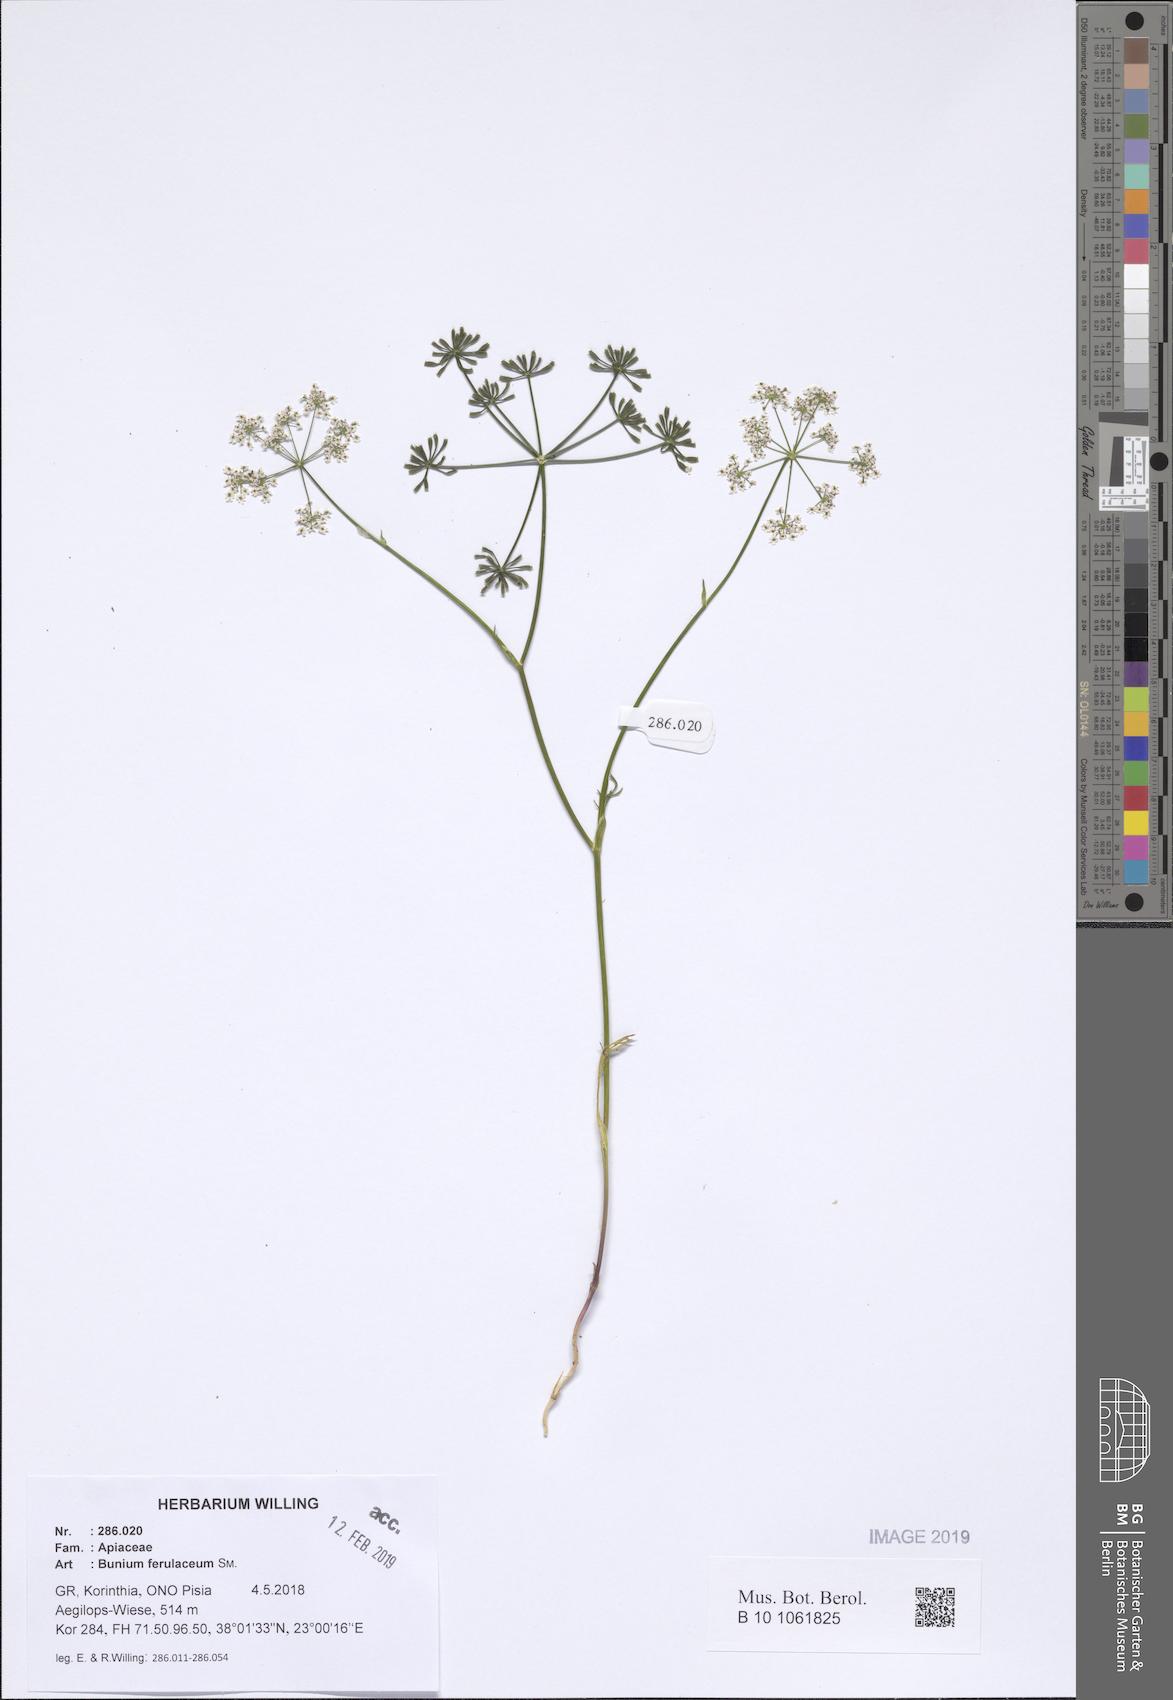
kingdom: Plantae
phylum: Tracheophyta
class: Magnoliopsida
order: Apiales
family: Apiaceae
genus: Bunium
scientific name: Bunium ferulaceum
